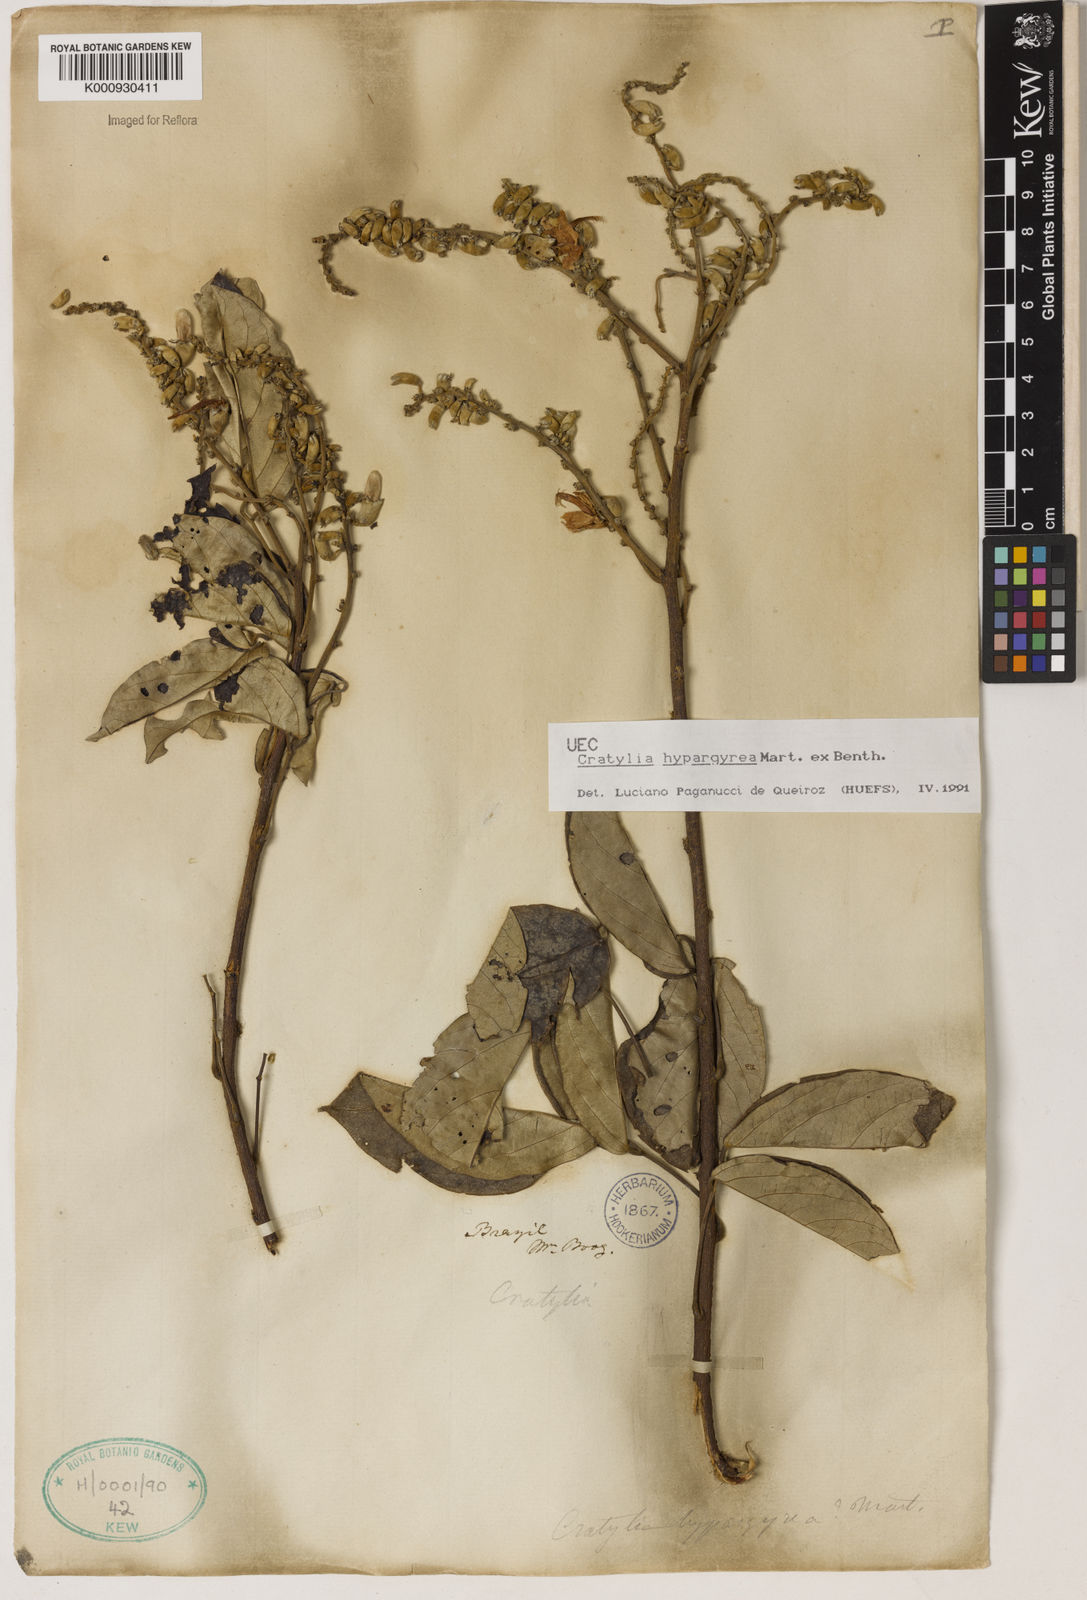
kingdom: Plantae
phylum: Tracheophyta
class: Magnoliopsida
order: Fabales
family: Fabaceae
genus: Cratylia
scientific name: Cratylia
